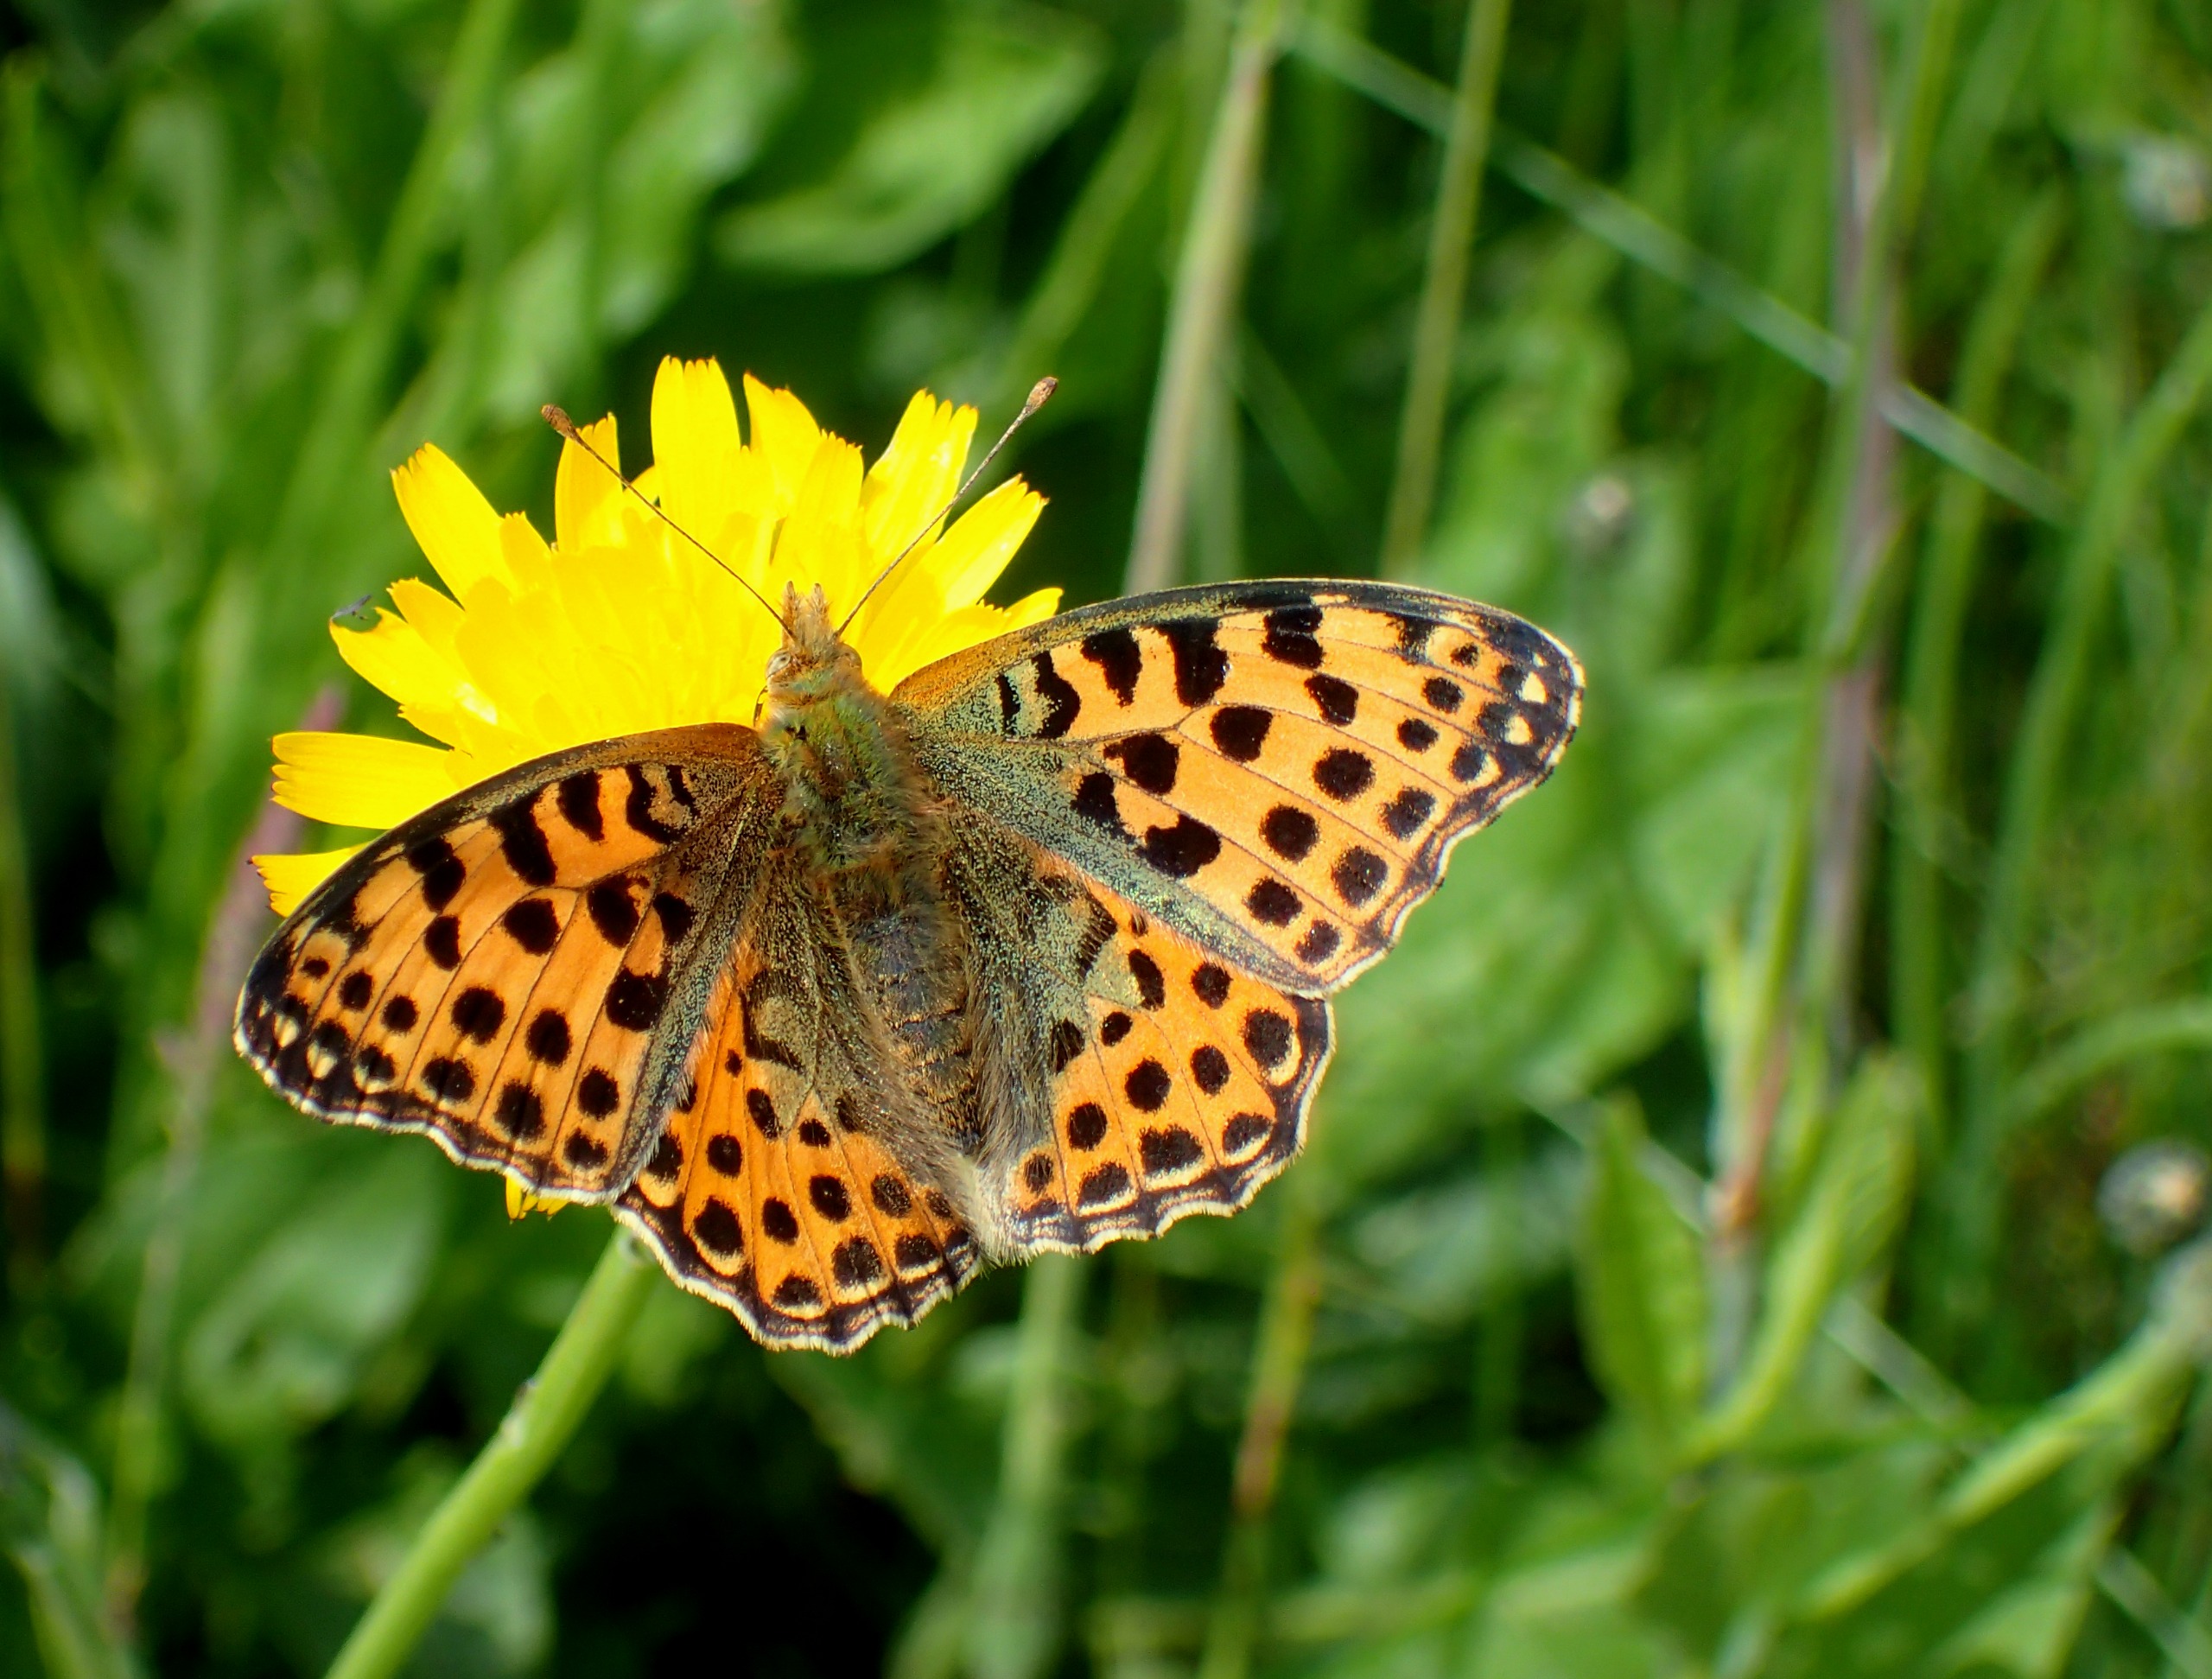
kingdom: Animalia
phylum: Arthropoda
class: Insecta
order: Lepidoptera
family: Nymphalidae
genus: Issoria
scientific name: Issoria lathonia
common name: Storplettet perlemorsommerfugl
